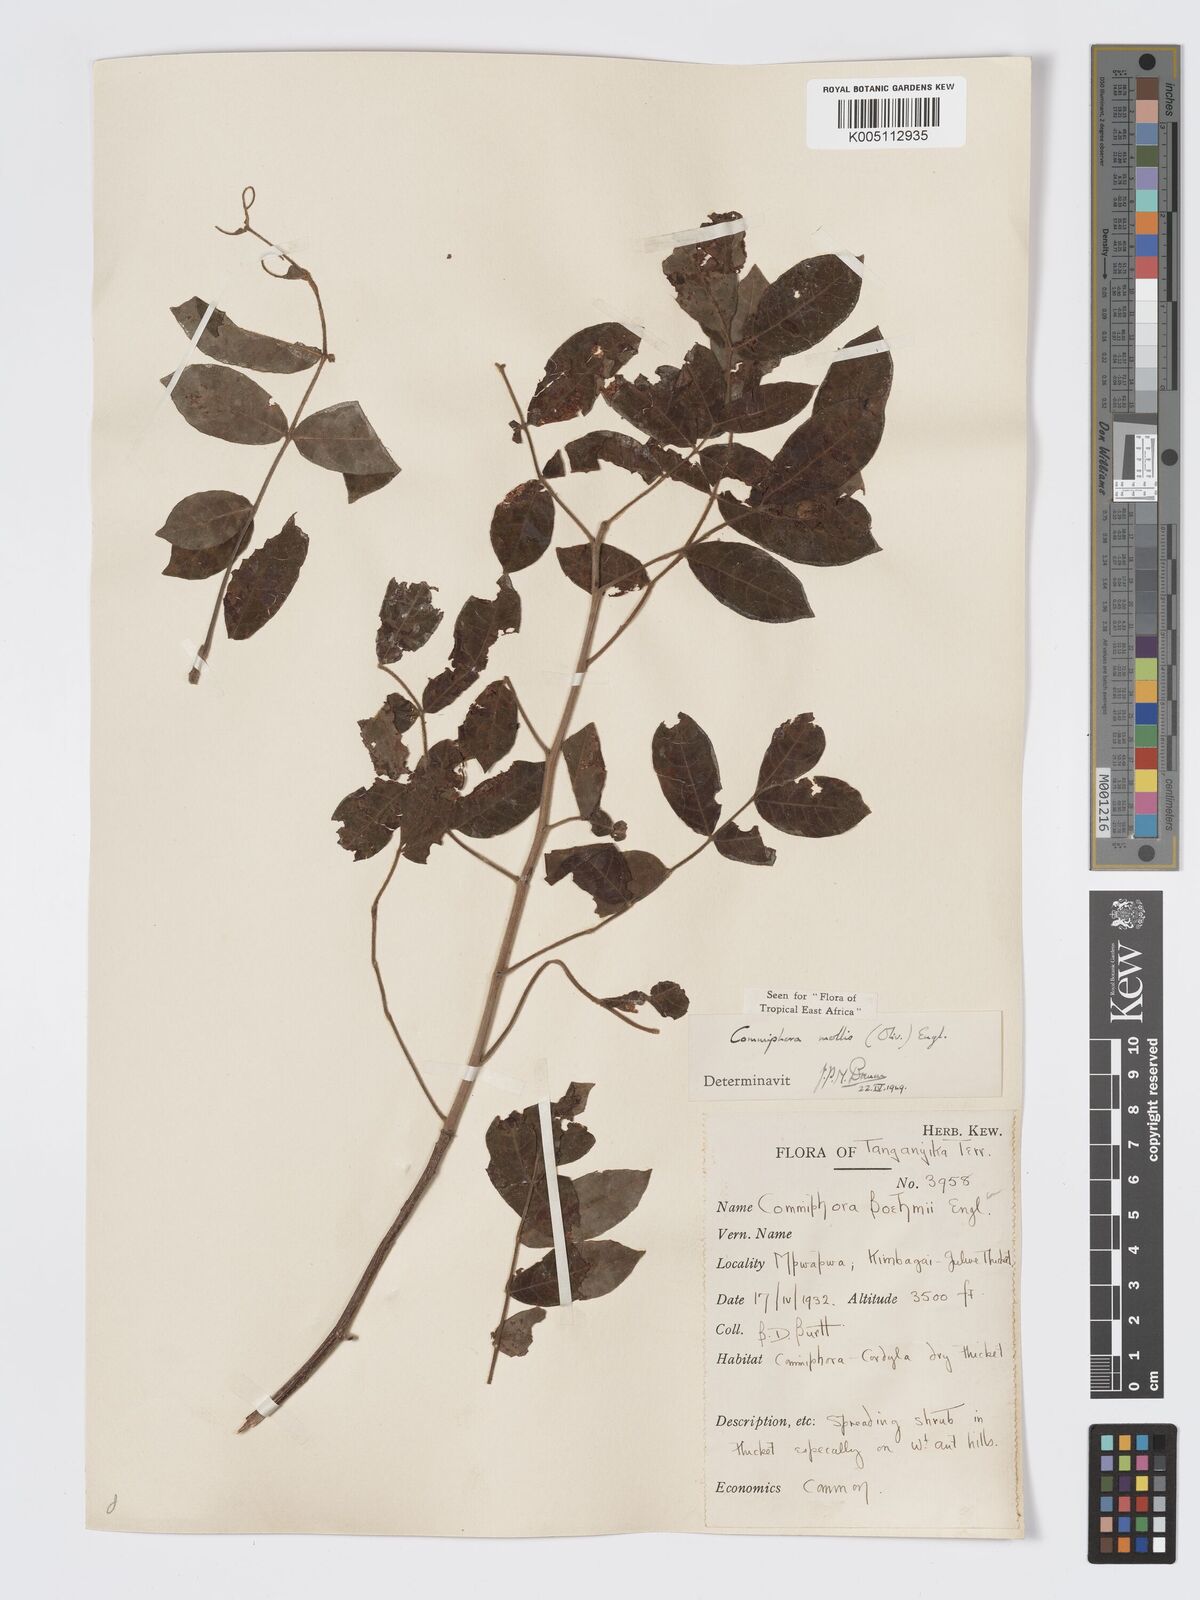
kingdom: Plantae
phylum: Tracheophyta
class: Magnoliopsida
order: Sapindales
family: Burseraceae
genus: Commiphora
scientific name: Commiphora
